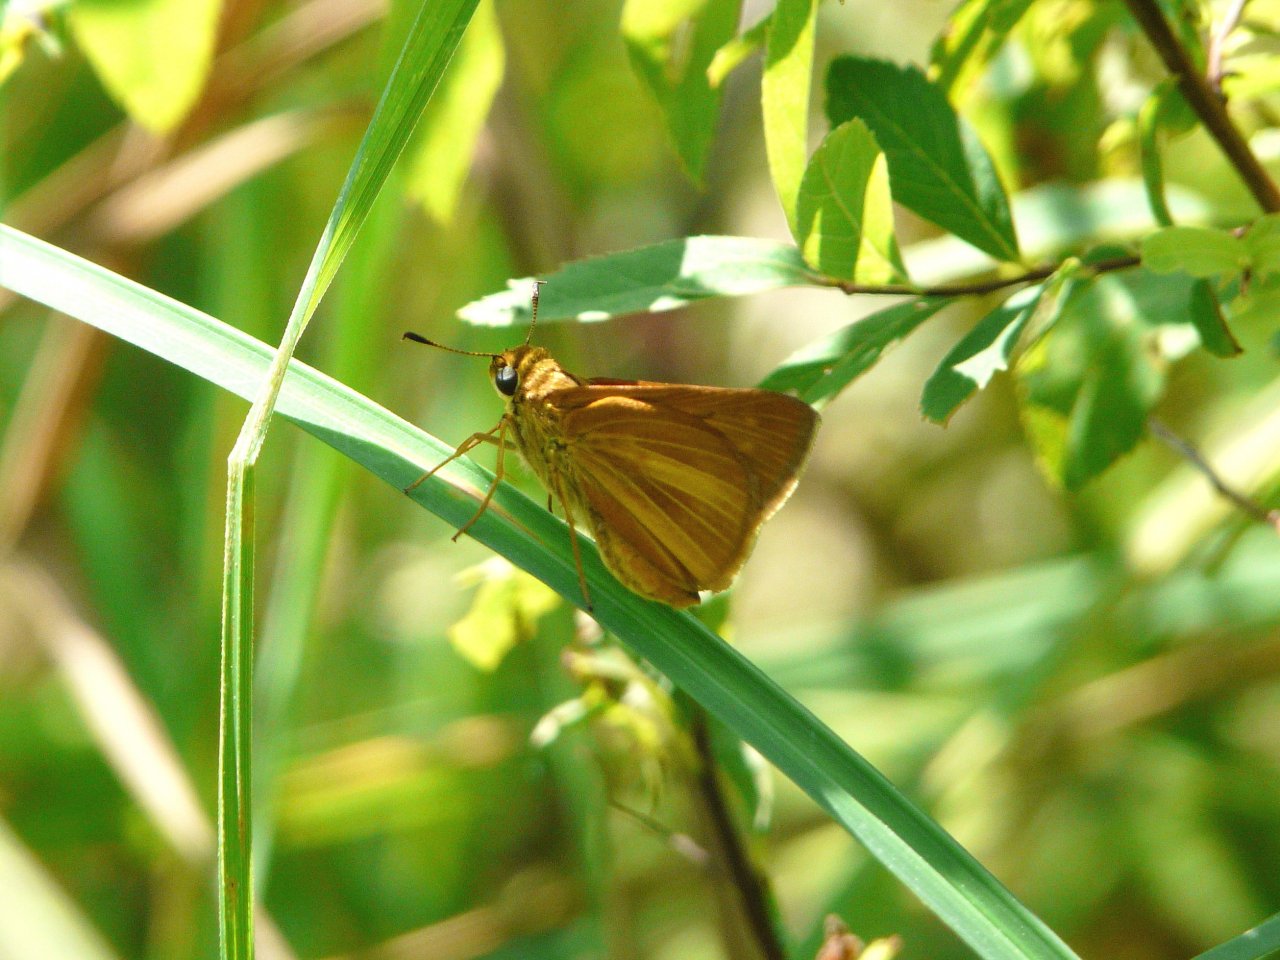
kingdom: Animalia
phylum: Arthropoda
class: Insecta
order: Lepidoptera
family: Hesperiidae
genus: Euphyes
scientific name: Euphyes dion
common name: Dion Skipper
